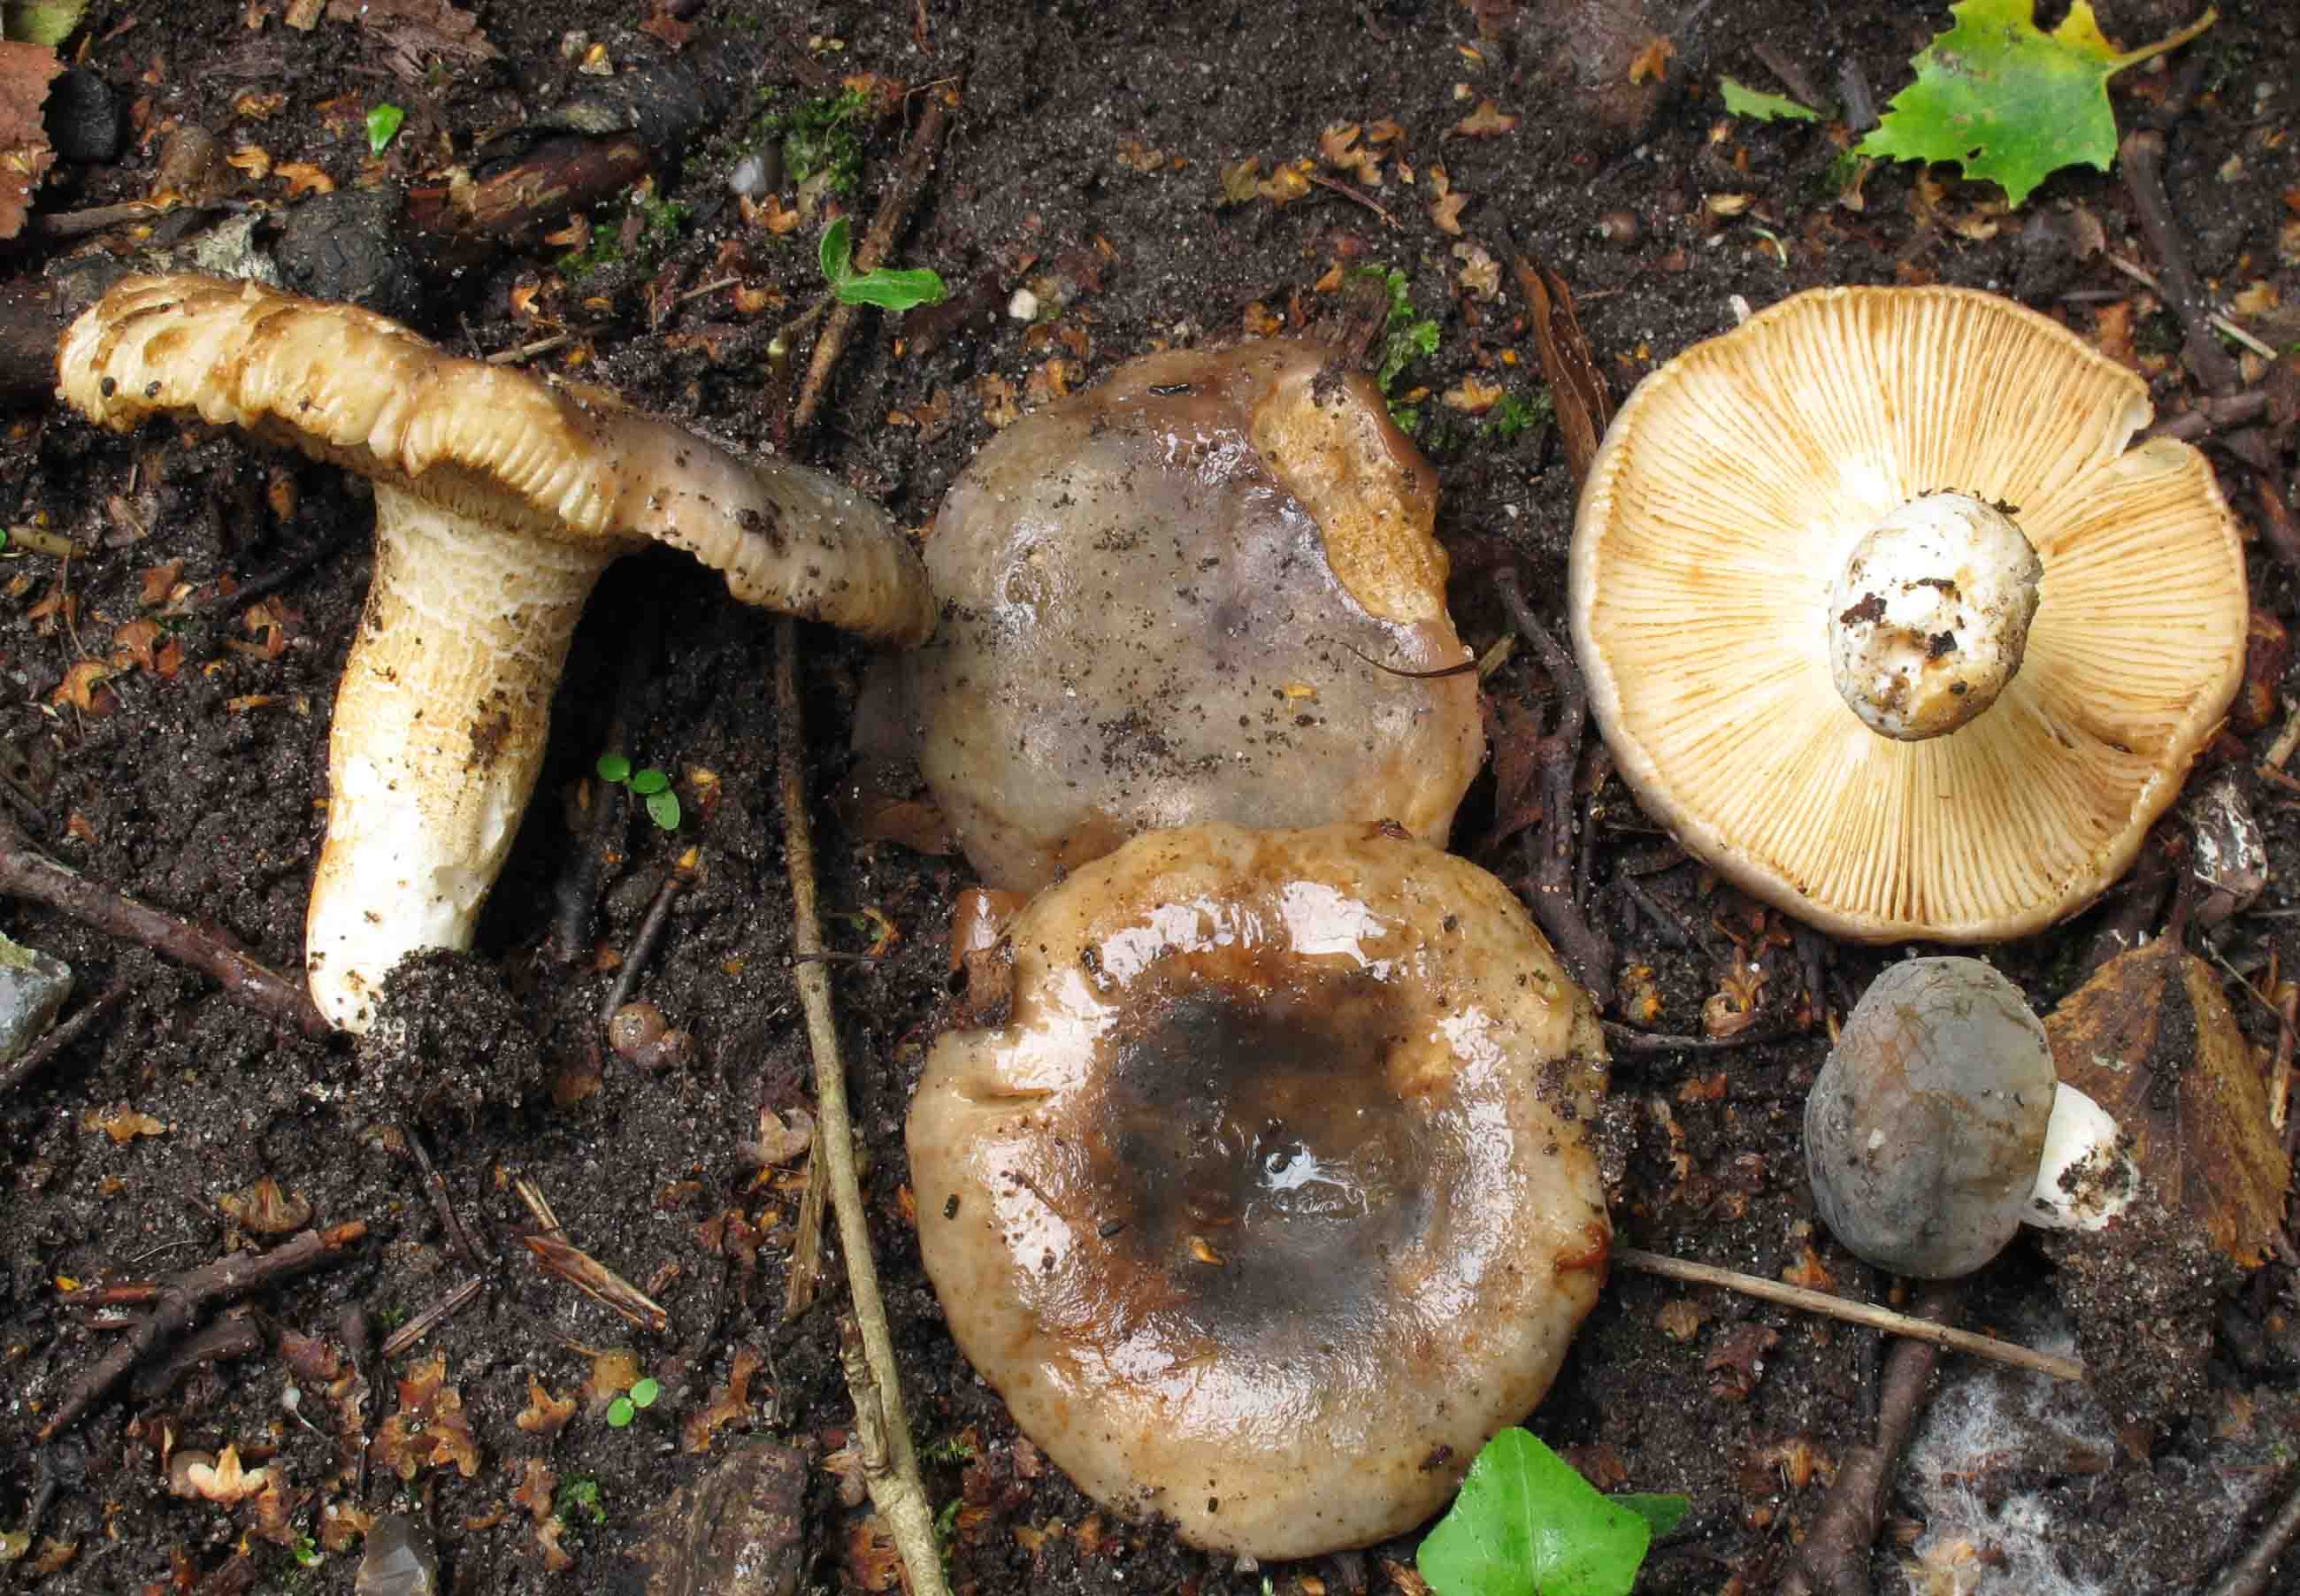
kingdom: Fungi
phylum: Basidiomycota
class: Agaricomycetes
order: Russulales
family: Russulaceae
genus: Russula
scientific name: Russula parazurea
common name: blågrå skørhat
